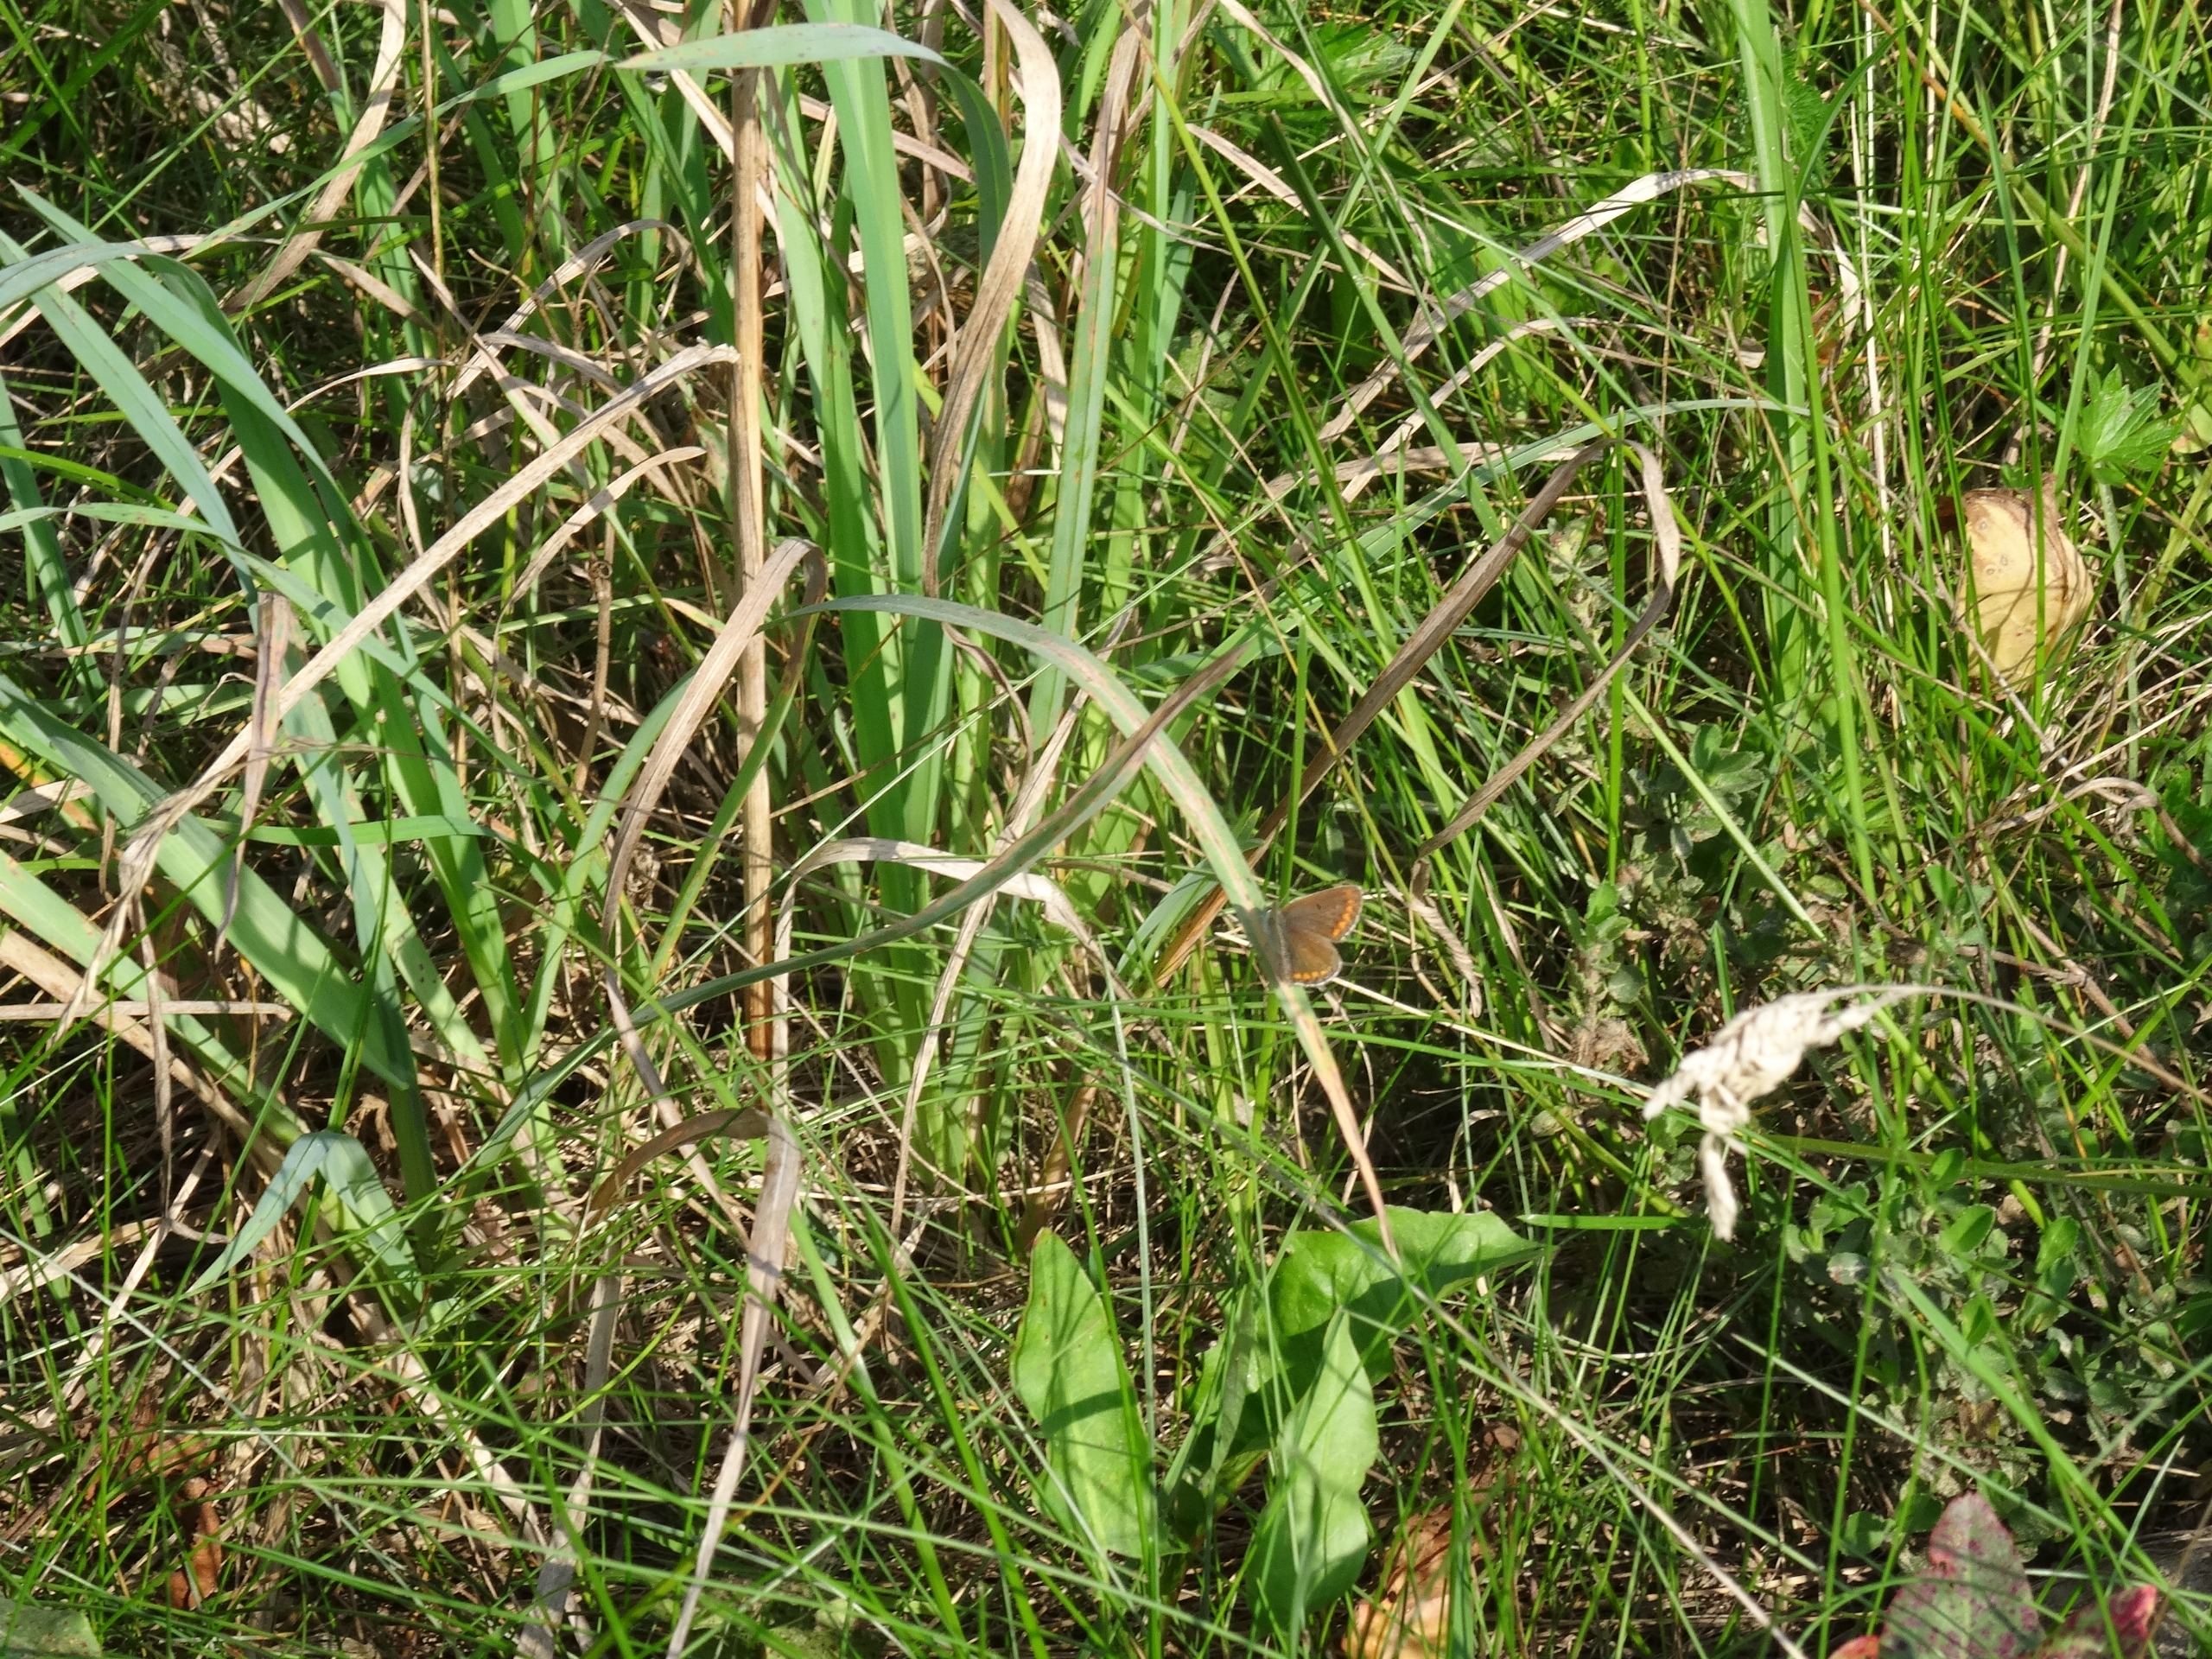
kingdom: Animalia
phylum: Arthropoda
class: Insecta
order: Lepidoptera
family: Lycaenidae
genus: Aricia
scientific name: Aricia agestis
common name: Rødplettet blåfugl
